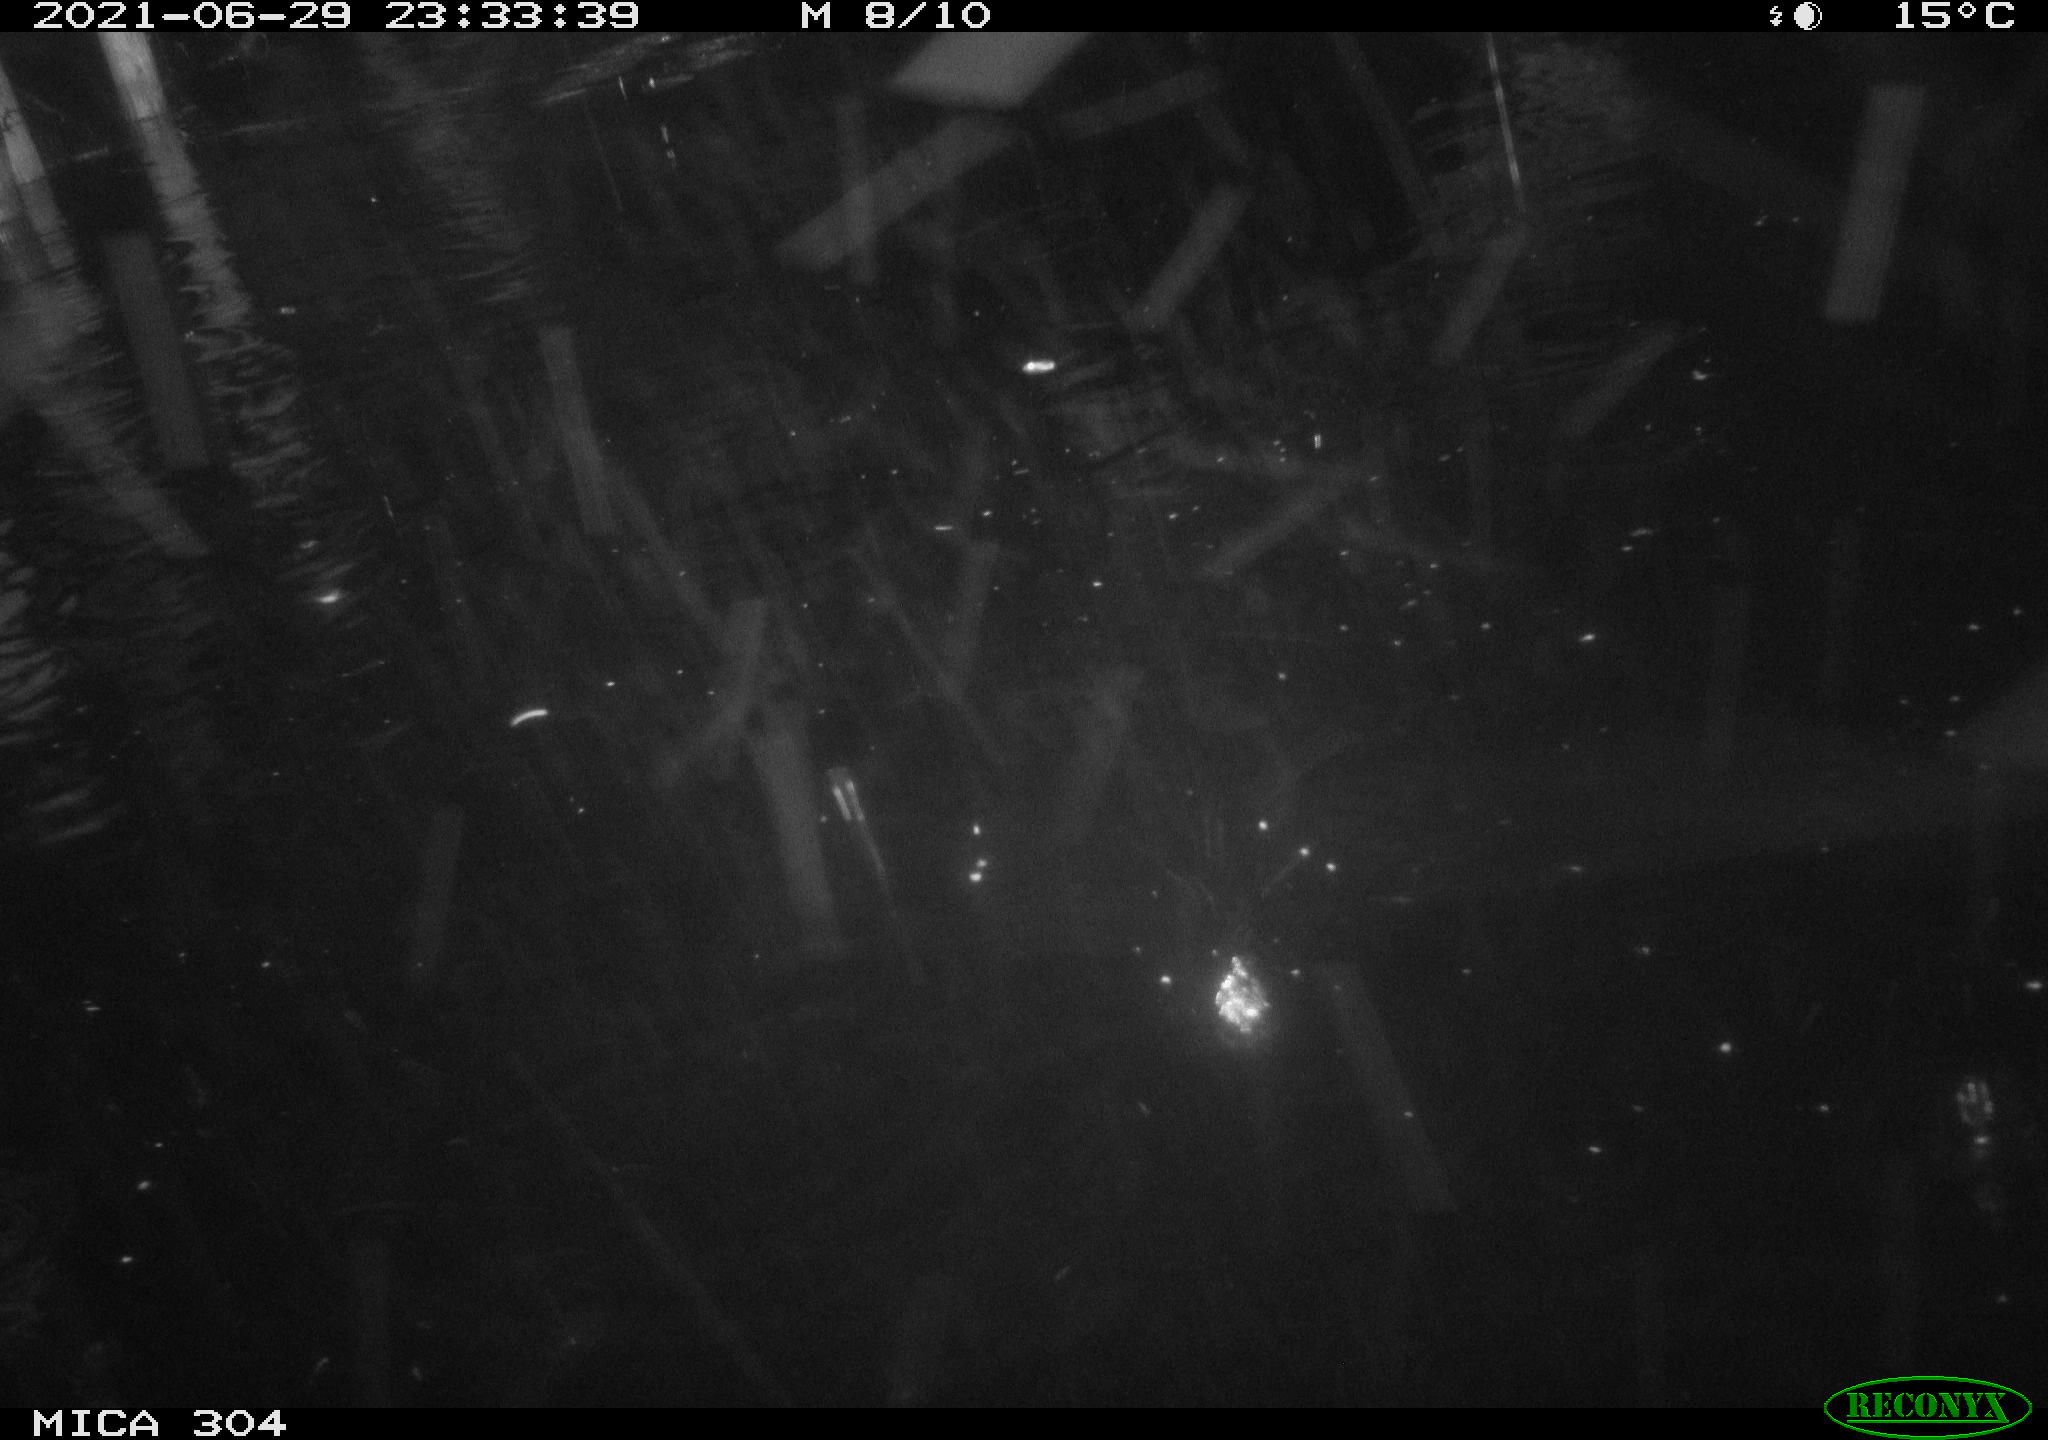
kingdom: Animalia
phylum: Chordata
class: Aves
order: Anseriformes
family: Anatidae
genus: Mareca
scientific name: Mareca strepera
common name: Gadwall
